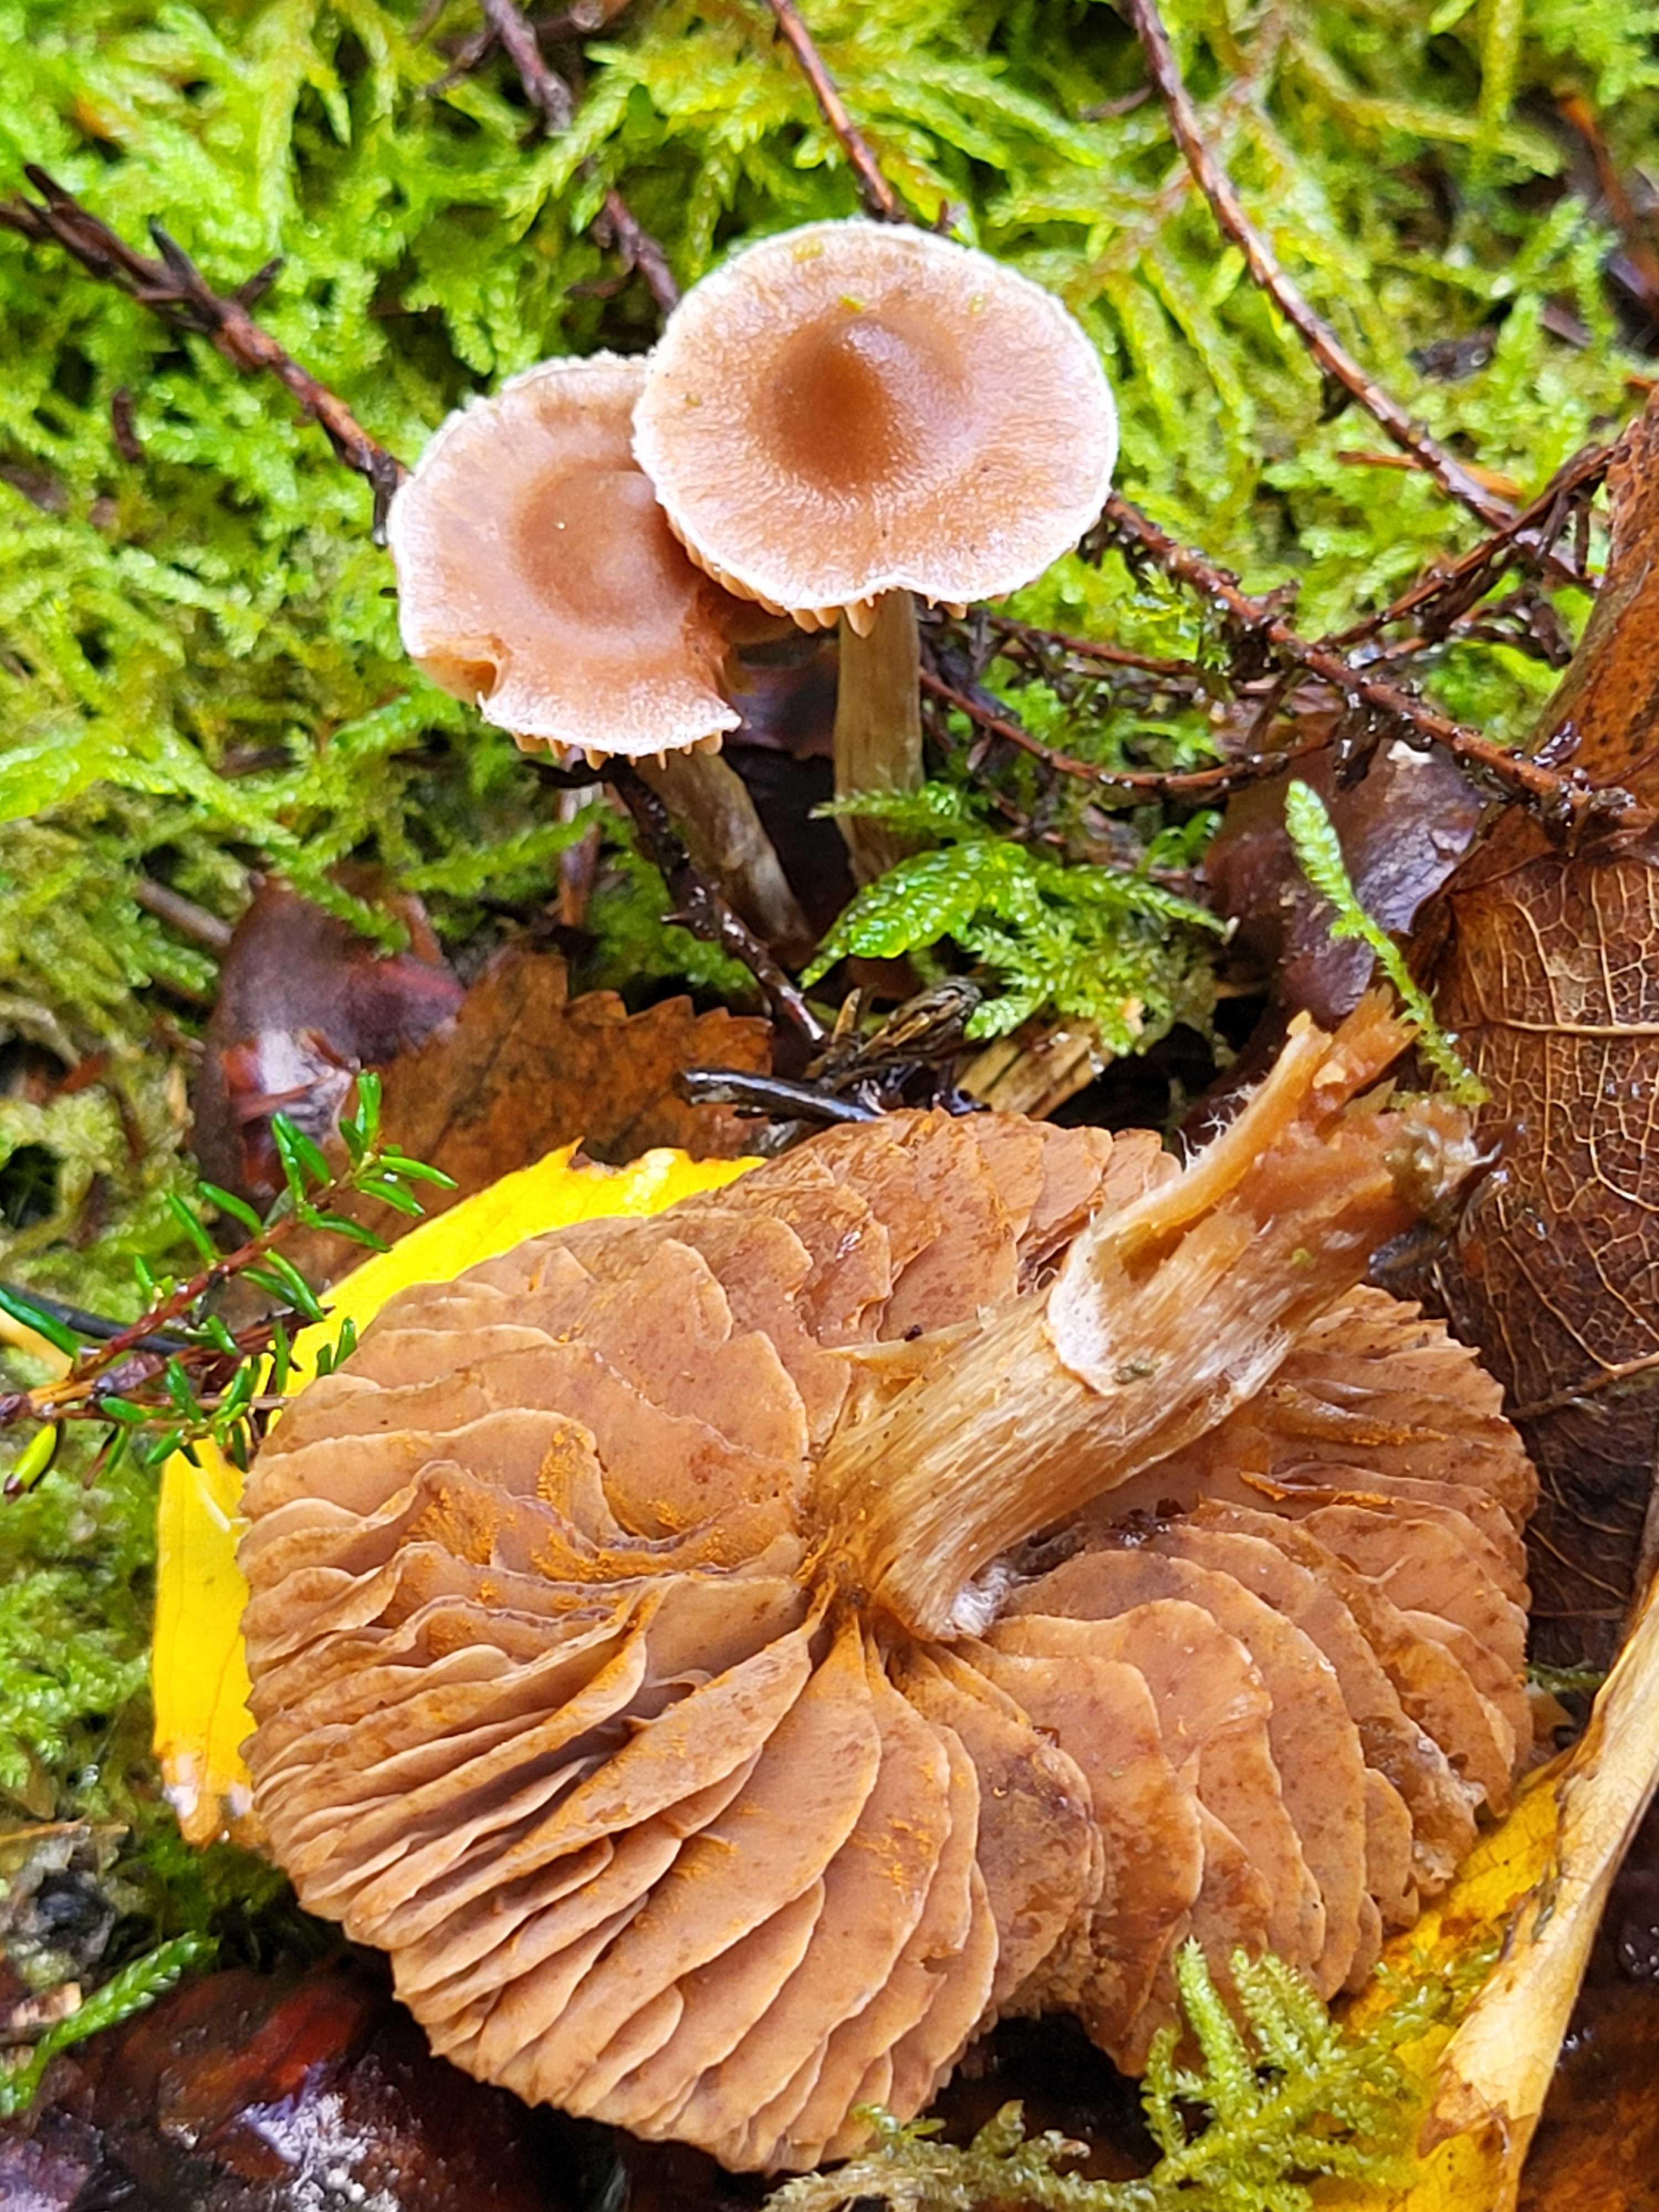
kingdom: Fungi
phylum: Basidiomycota
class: Agaricomycetes
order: Agaricales
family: Cortinariaceae
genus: Cortinarius
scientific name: Cortinarius
